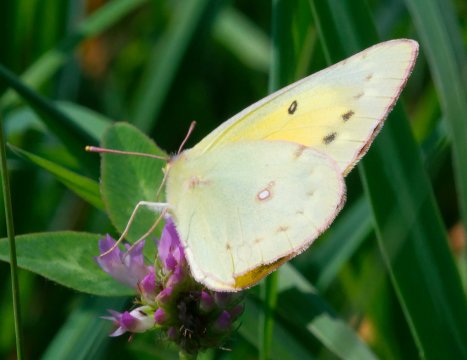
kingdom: Animalia
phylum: Arthropoda
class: Insecta
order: Lepidoptera
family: Pieridae
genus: Colias
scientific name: Colias eurytheme
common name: Orange Sulphur
